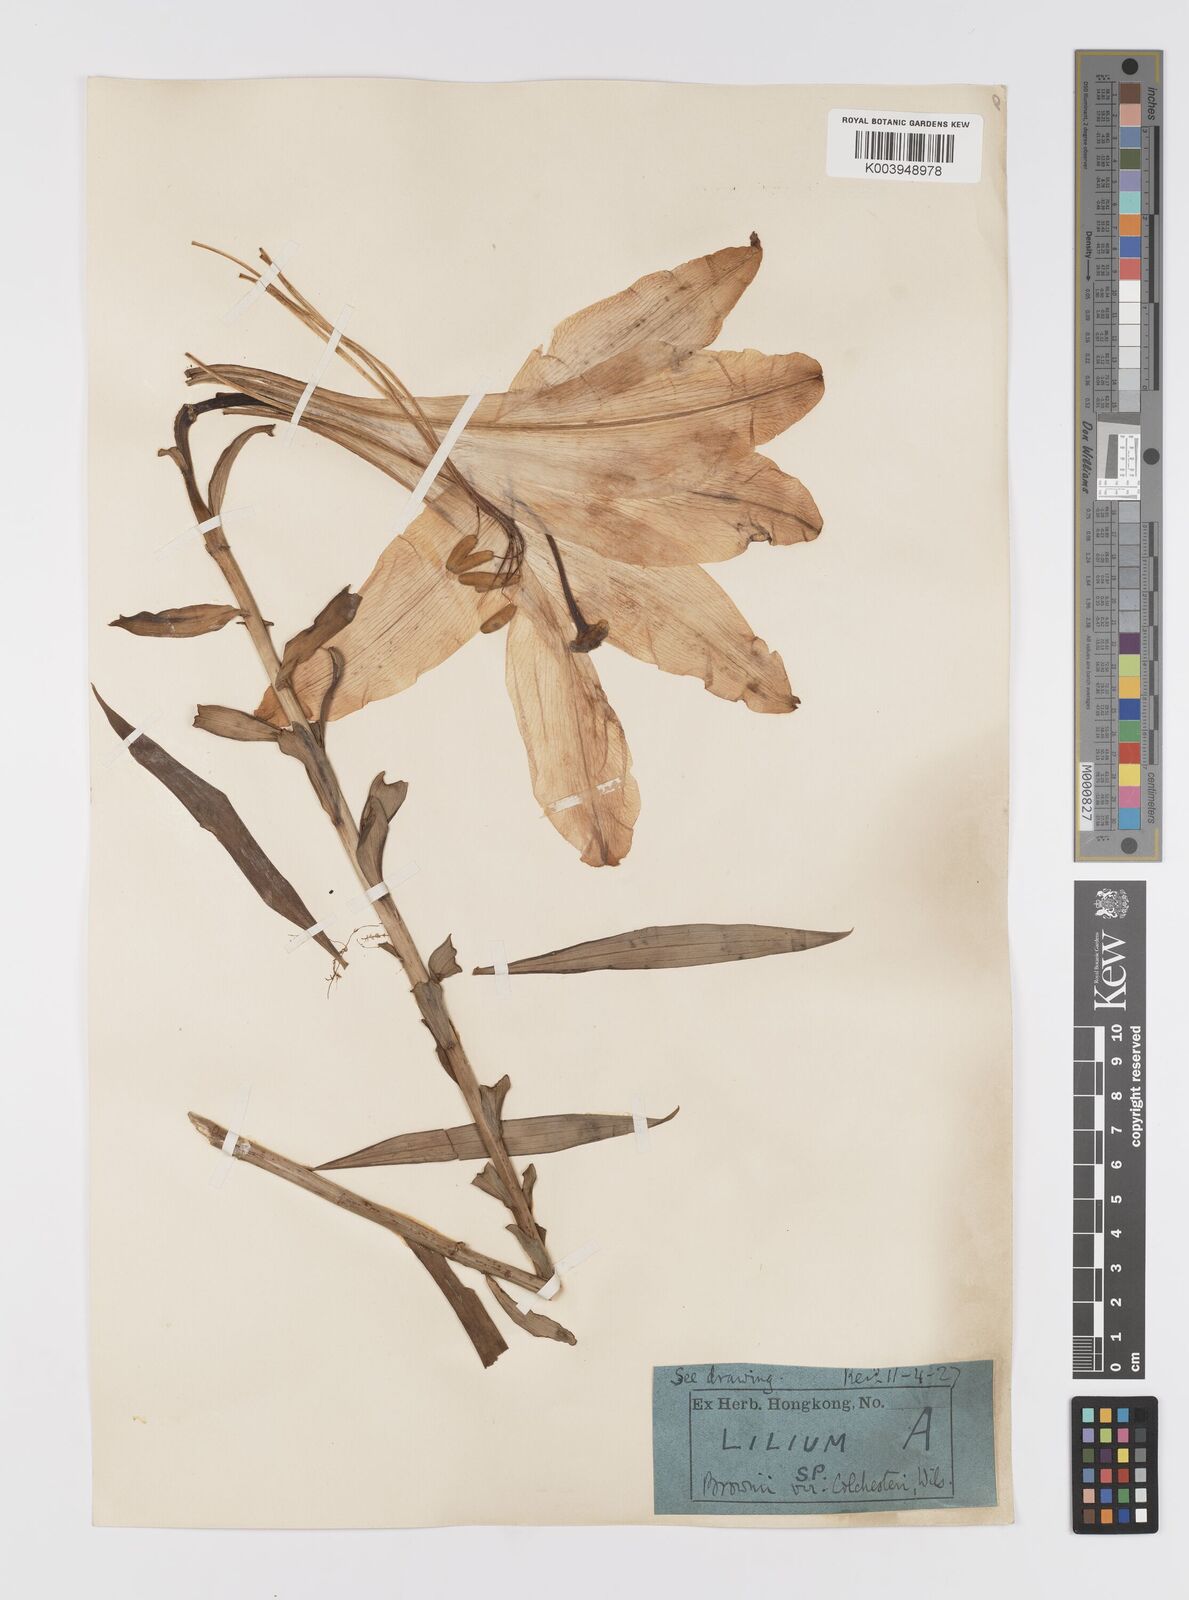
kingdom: Plantae
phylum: Tracheophyta
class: Liliopsida
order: Liliales
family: Liliaceae
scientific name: Liliaceae
